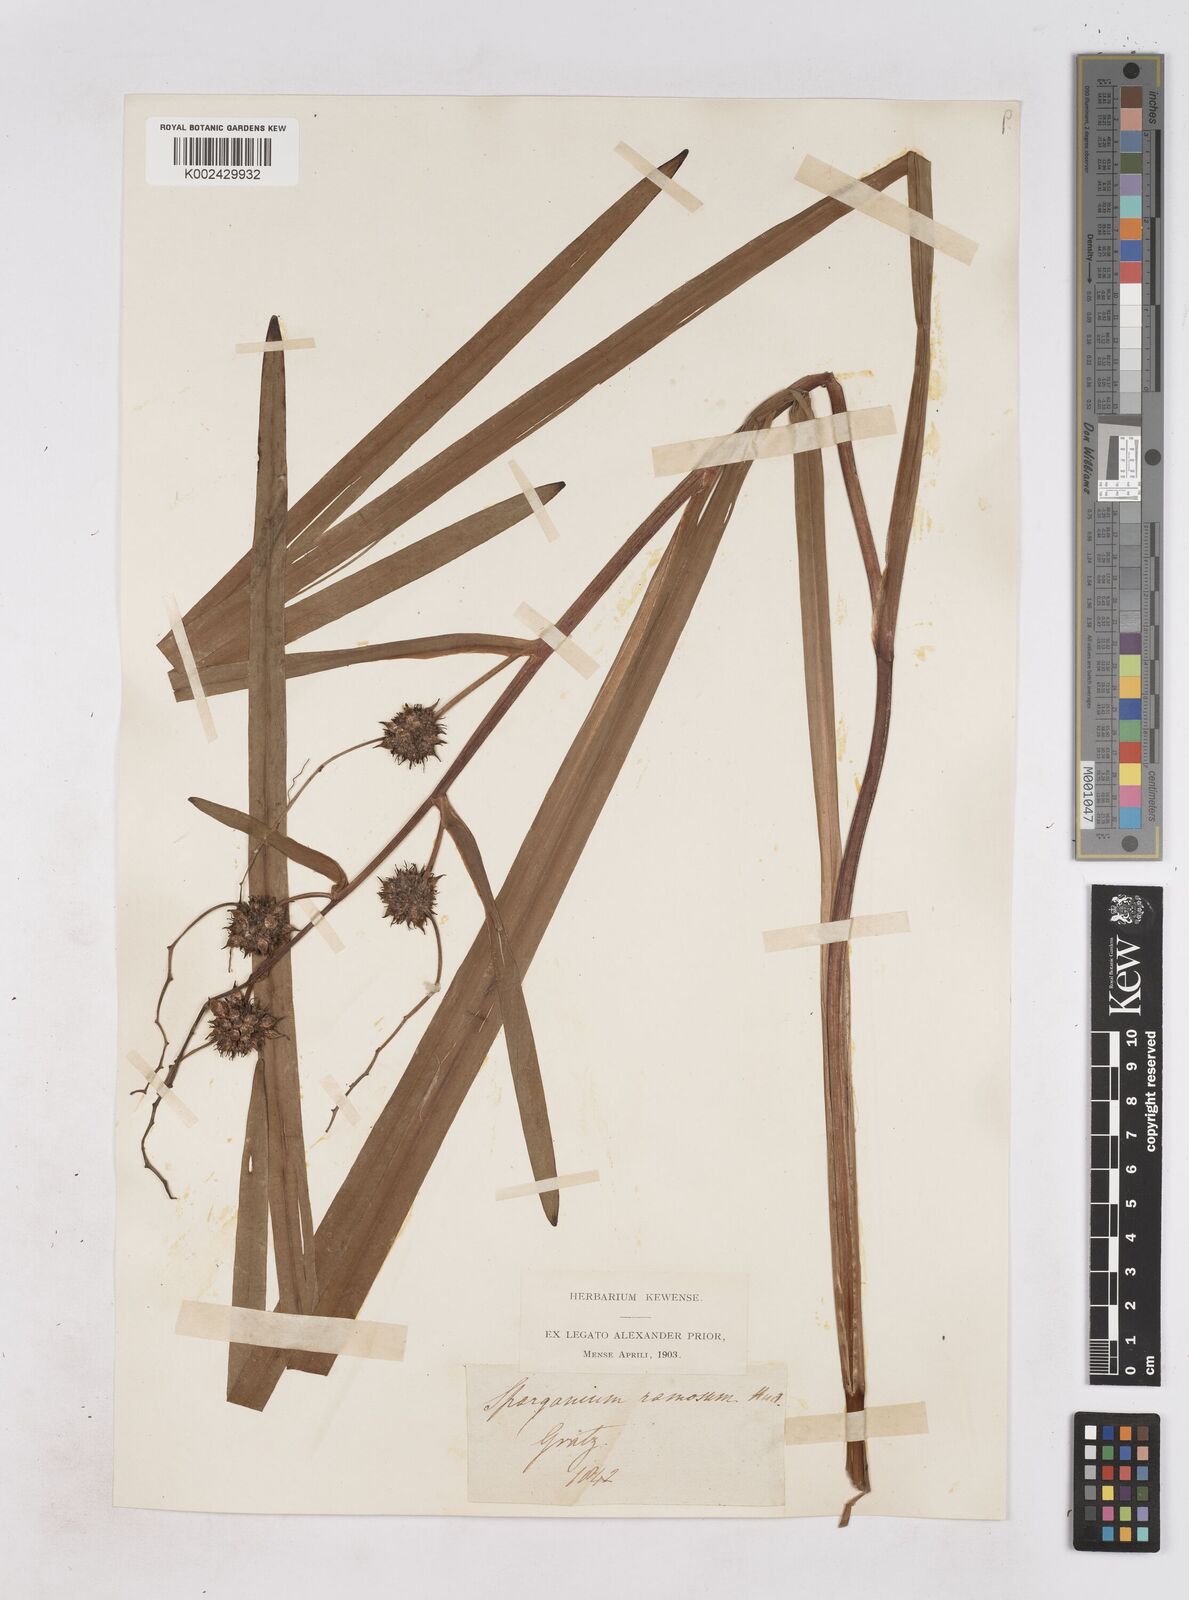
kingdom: Plantae
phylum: Tracheophyta
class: Liliopsida
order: Poales
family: Typhaceae
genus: Sparganium
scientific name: Sparganium erectum
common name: Branched bur-reed
